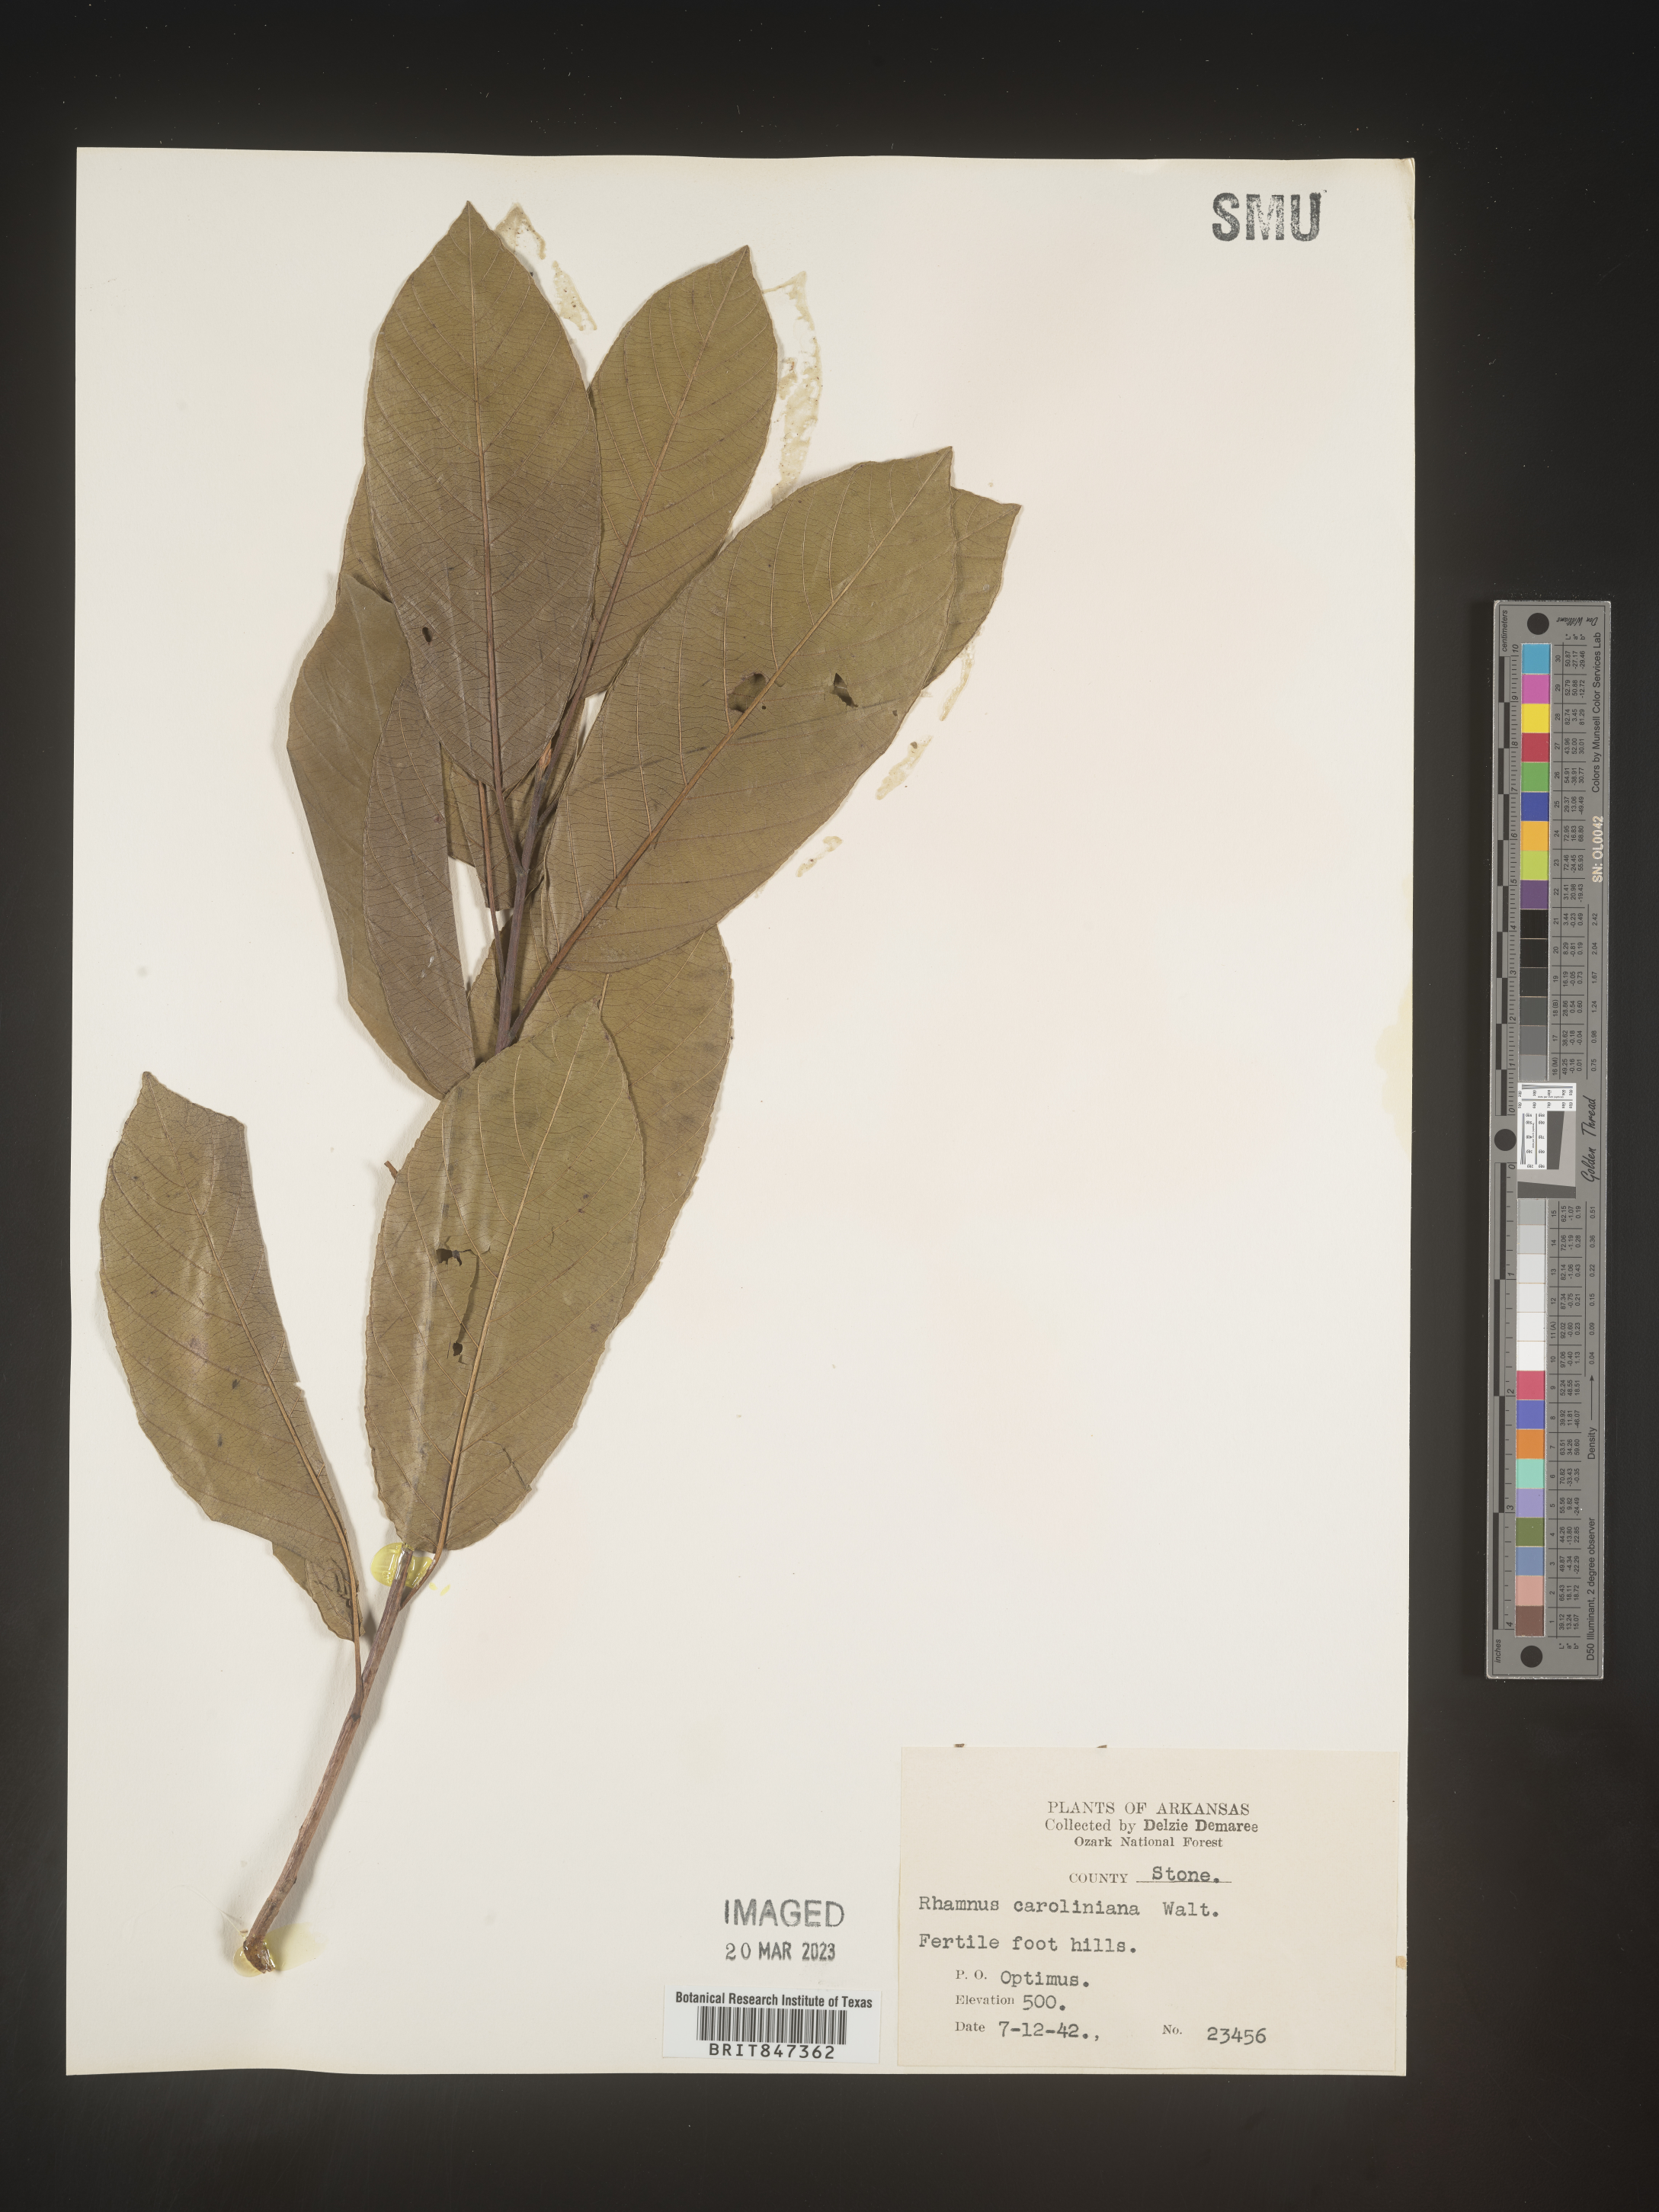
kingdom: Plantae
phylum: Tracheophyta
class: Magnoliopsida
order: Rosales
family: Rhamnaceae
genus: Frangula
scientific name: Frangula caroliniana
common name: Carolina buckthorn
